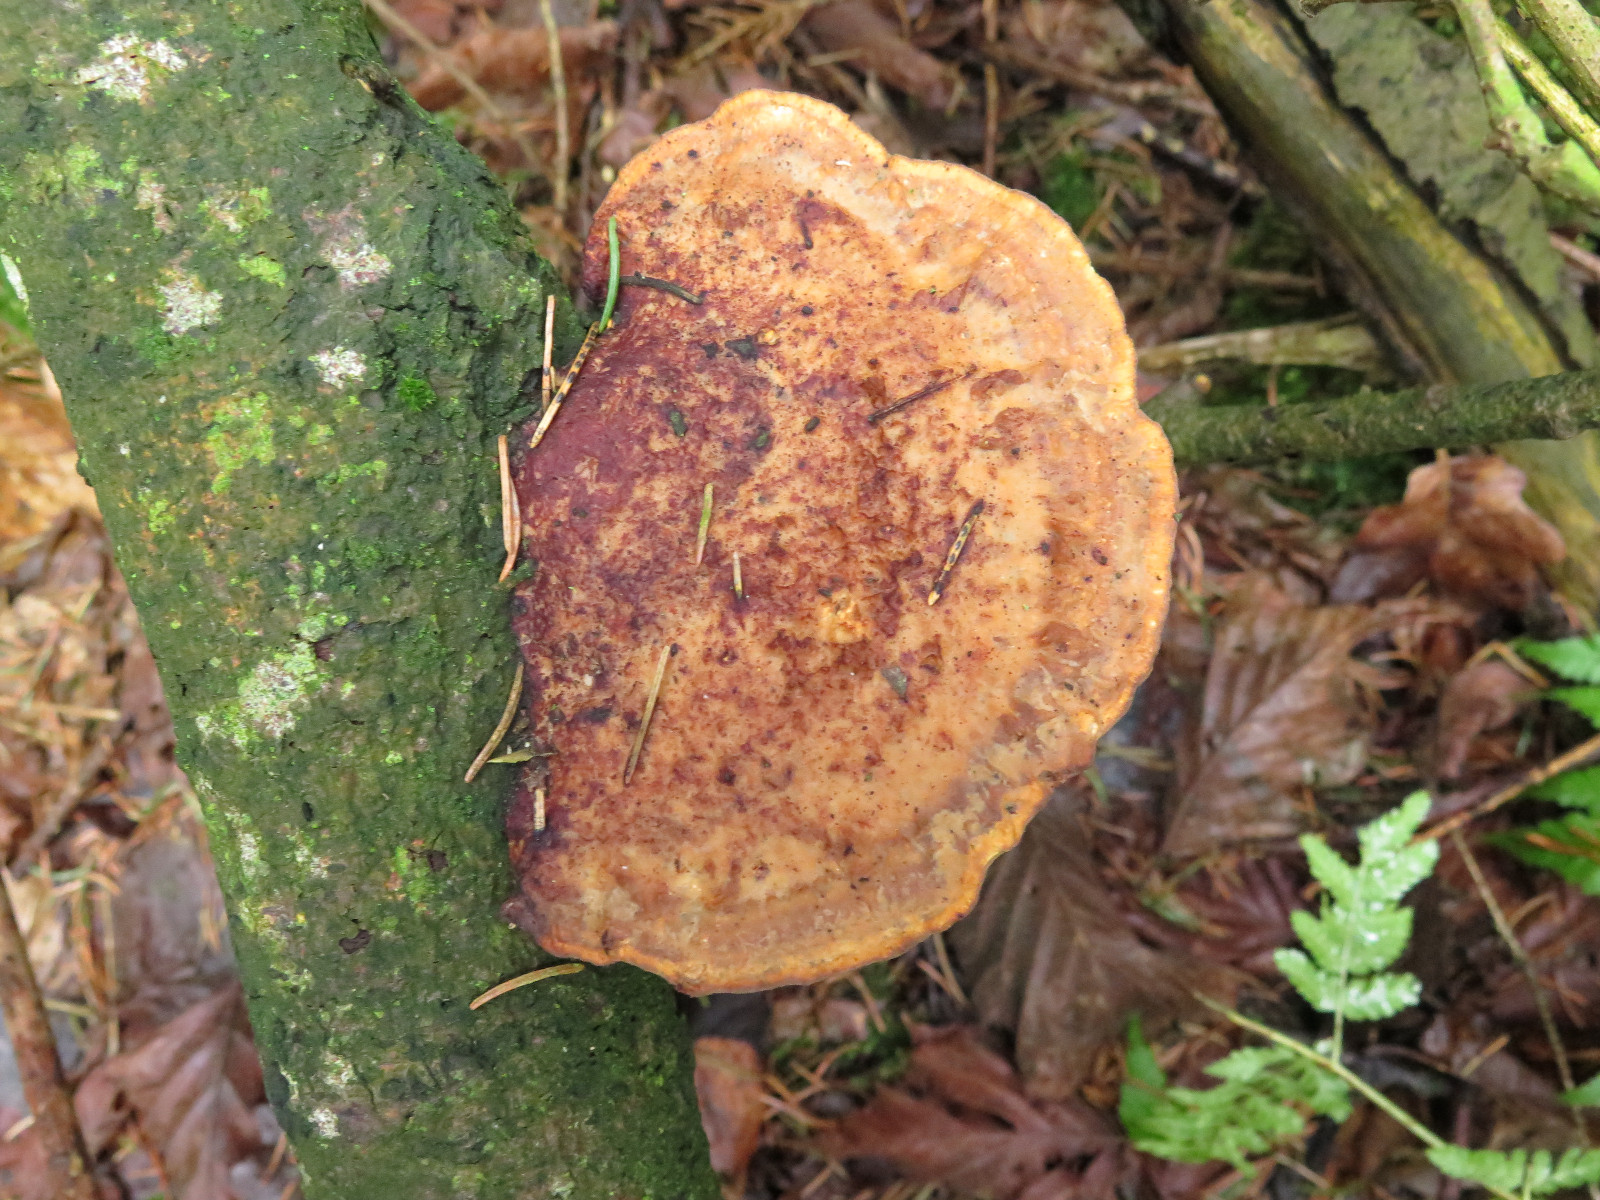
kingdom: Fungi
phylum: Basidiomycota
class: Agaricomycetes
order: Polyporales
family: Polyporaceae
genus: Daedaleopsis
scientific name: Daedaleopsis confragosa
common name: rødmende læderporesvamp
